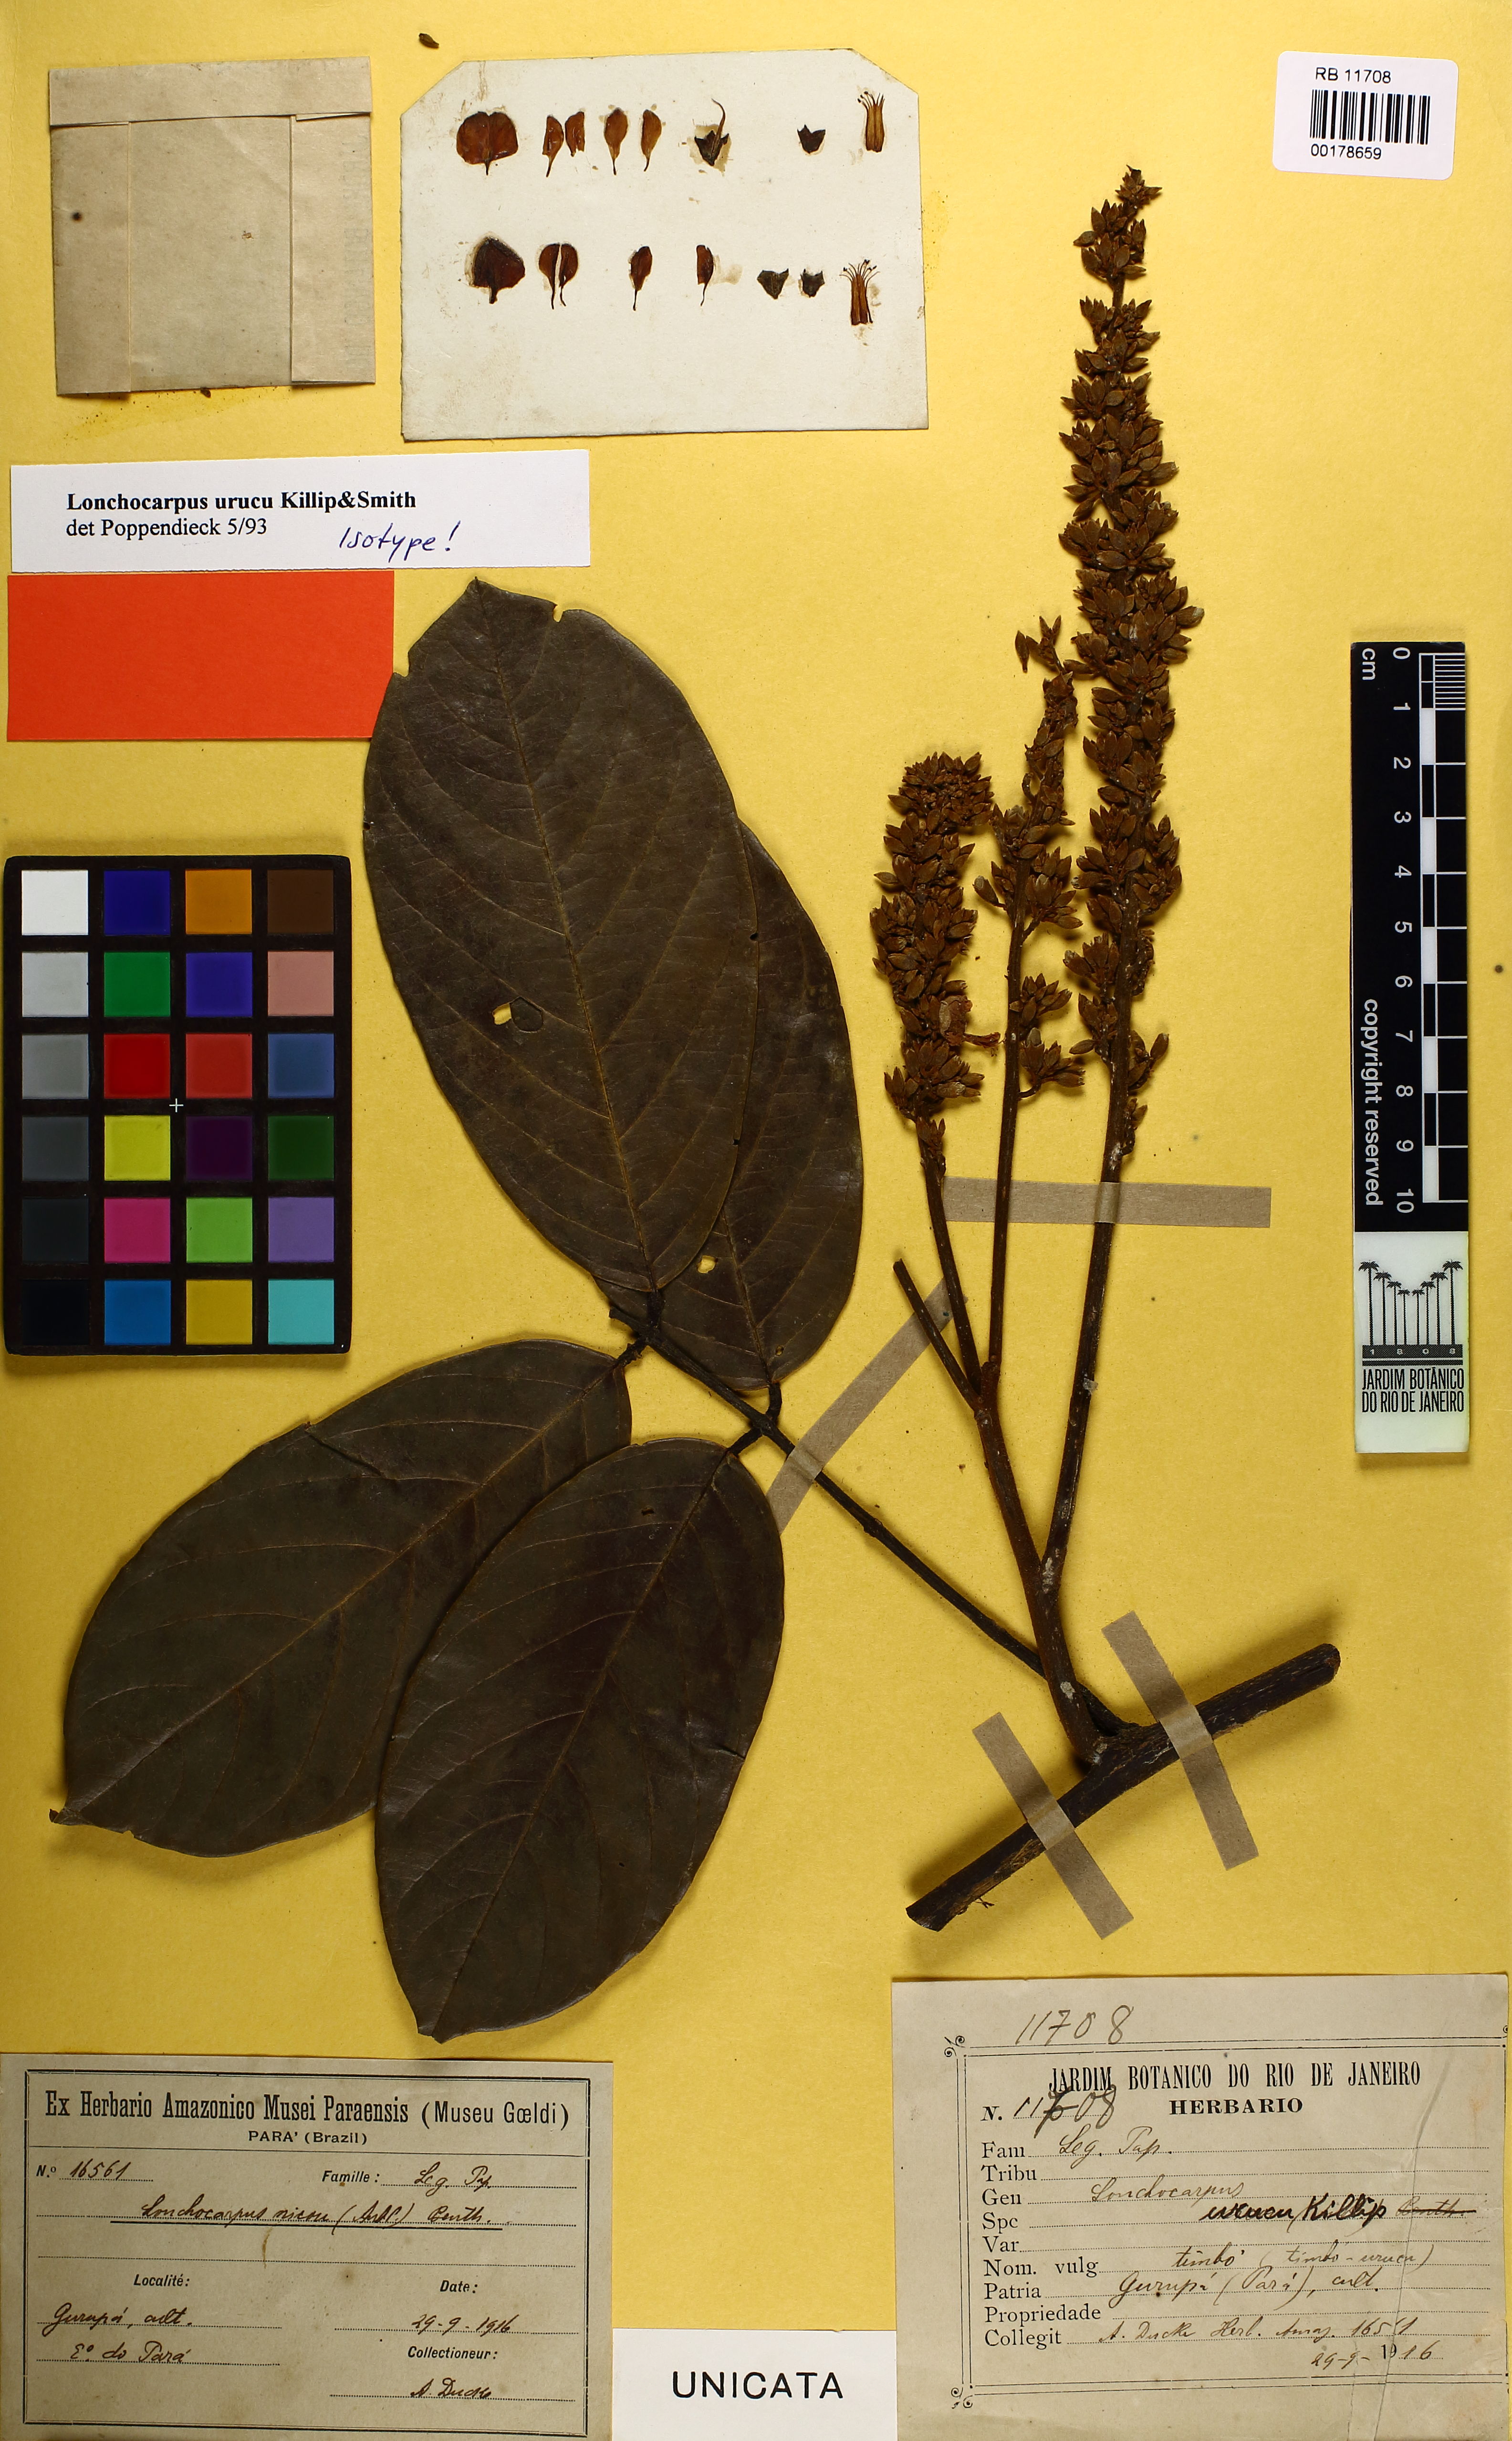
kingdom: Plantae
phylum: Tracheophyta
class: Magnoliopsida
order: Fabales
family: Fabaceae
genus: Deguelia
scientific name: Deguelia urucu
